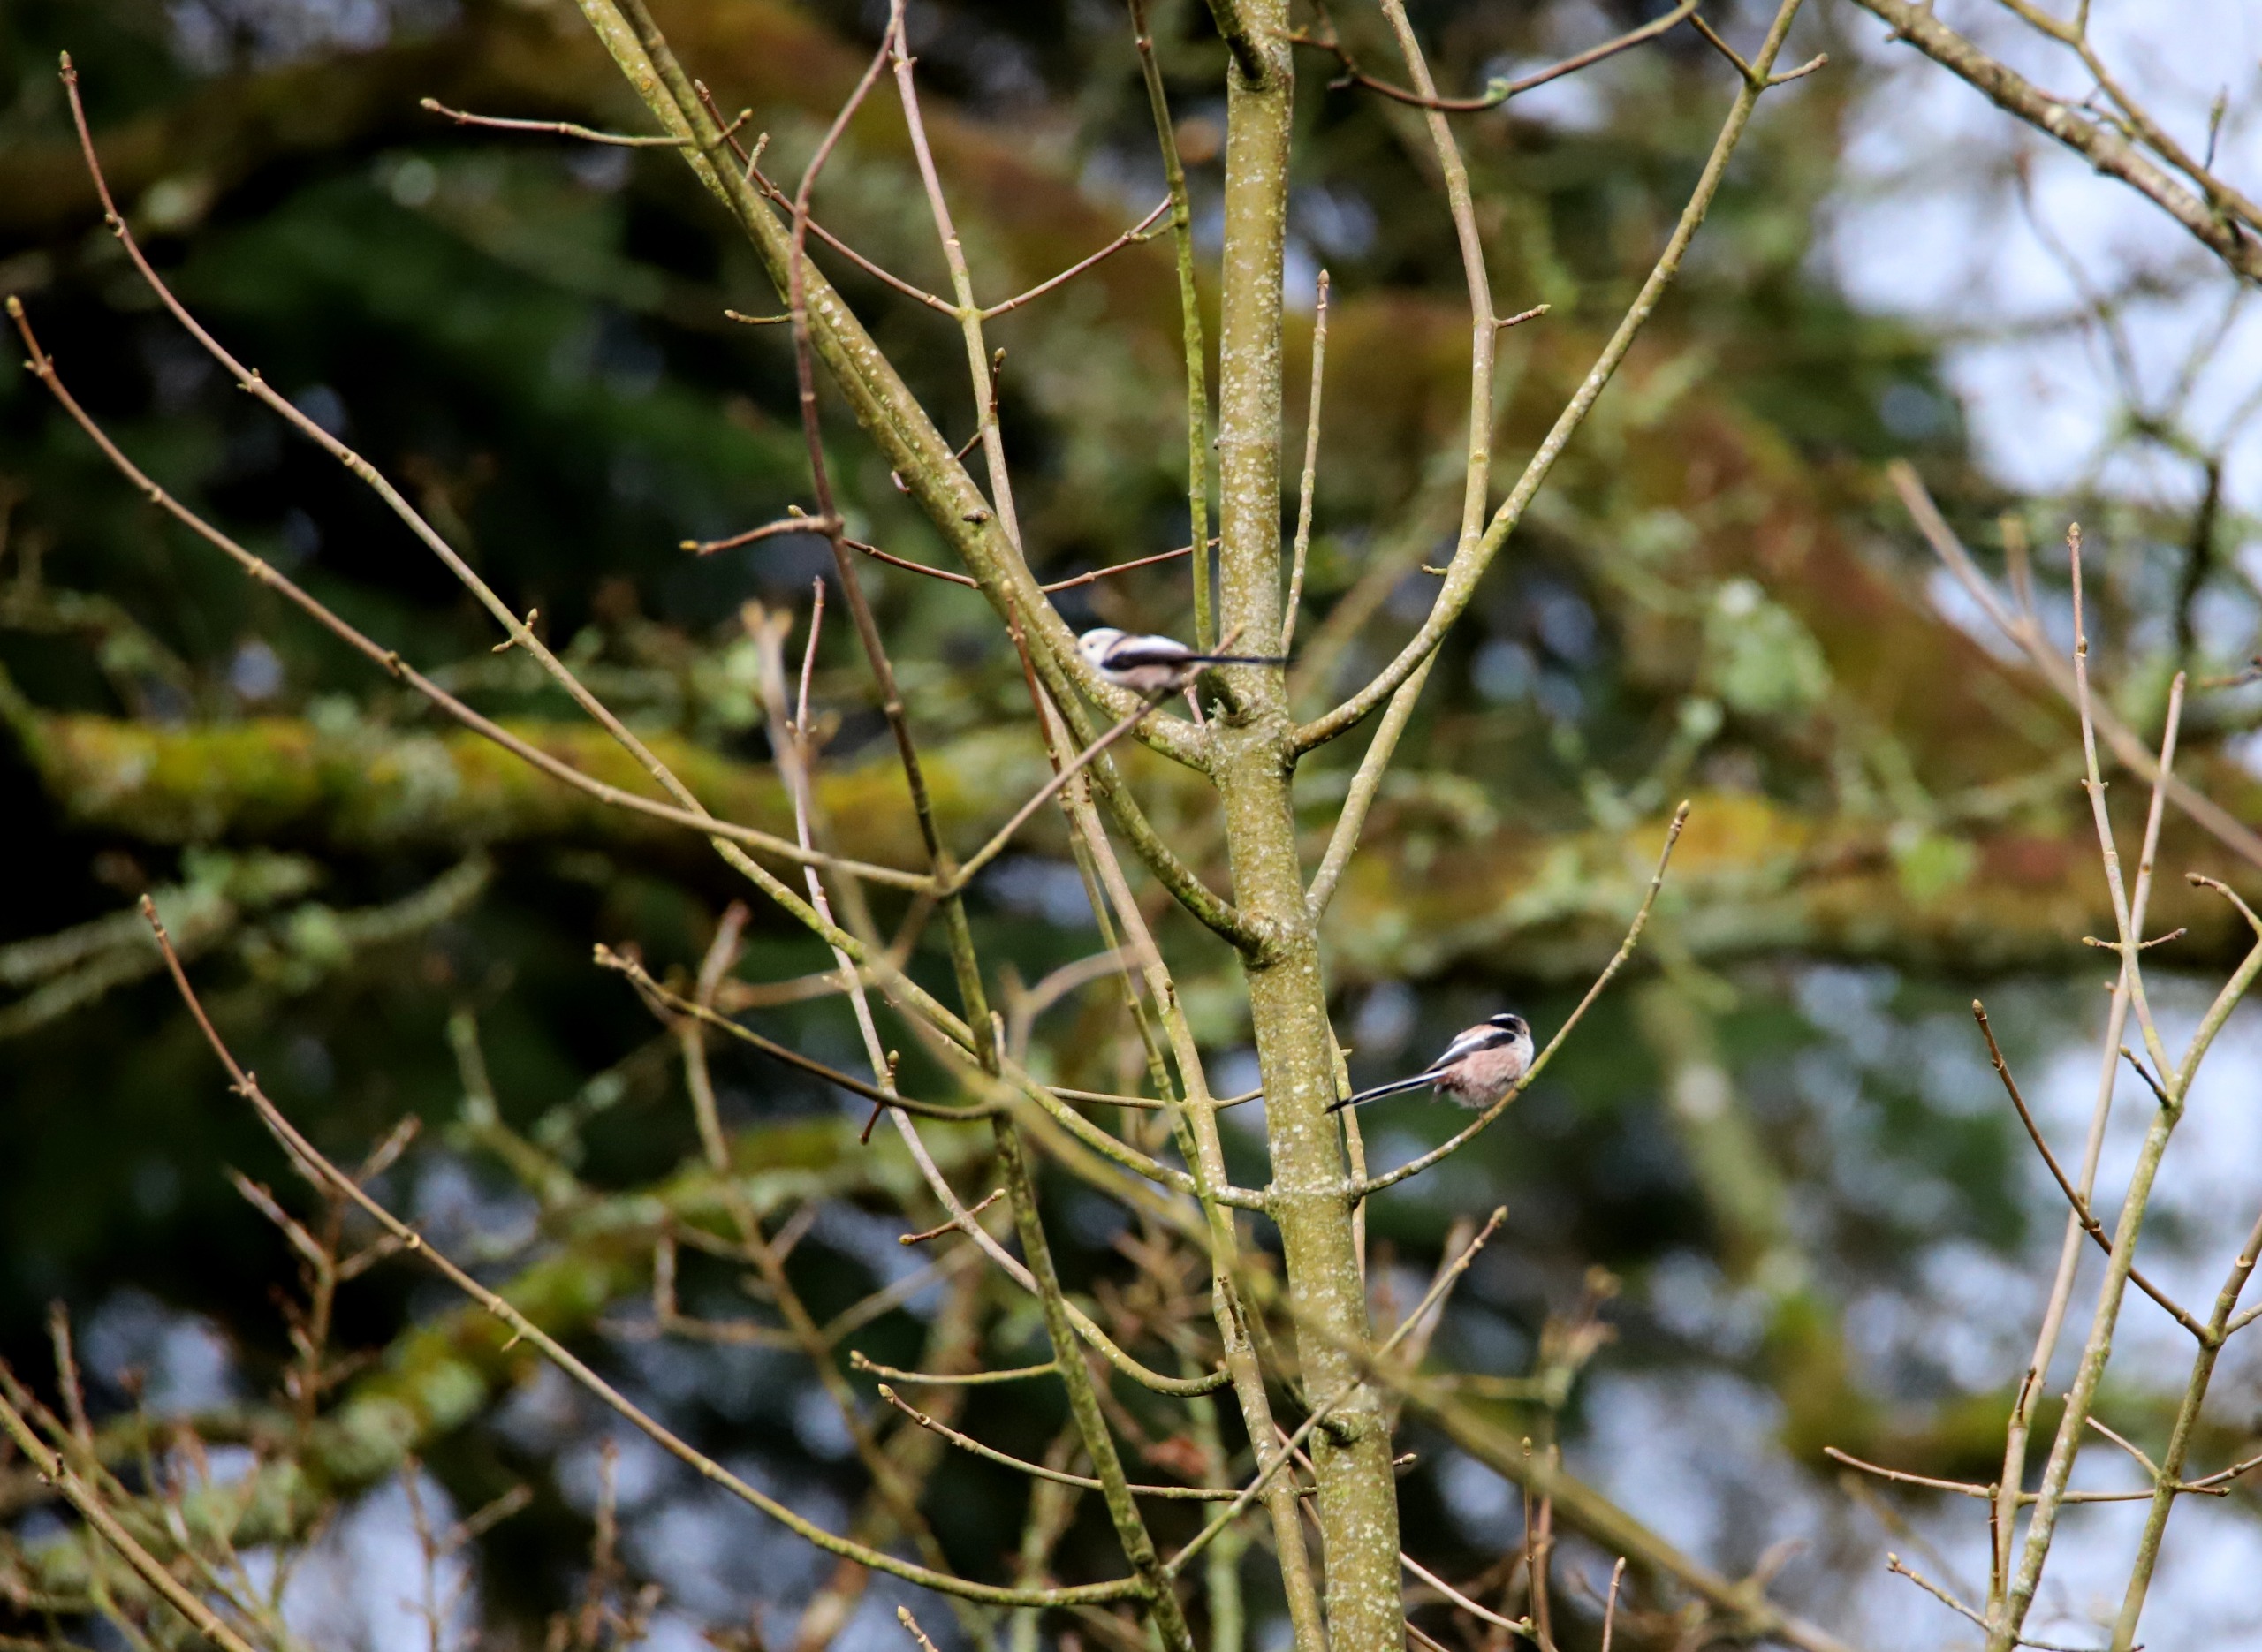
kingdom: Animalia
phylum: Chordata
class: Aves
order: Passeriformes
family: Aegithalidae
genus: Aegithalos
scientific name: Aegithalos caudatus
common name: Halemejse
